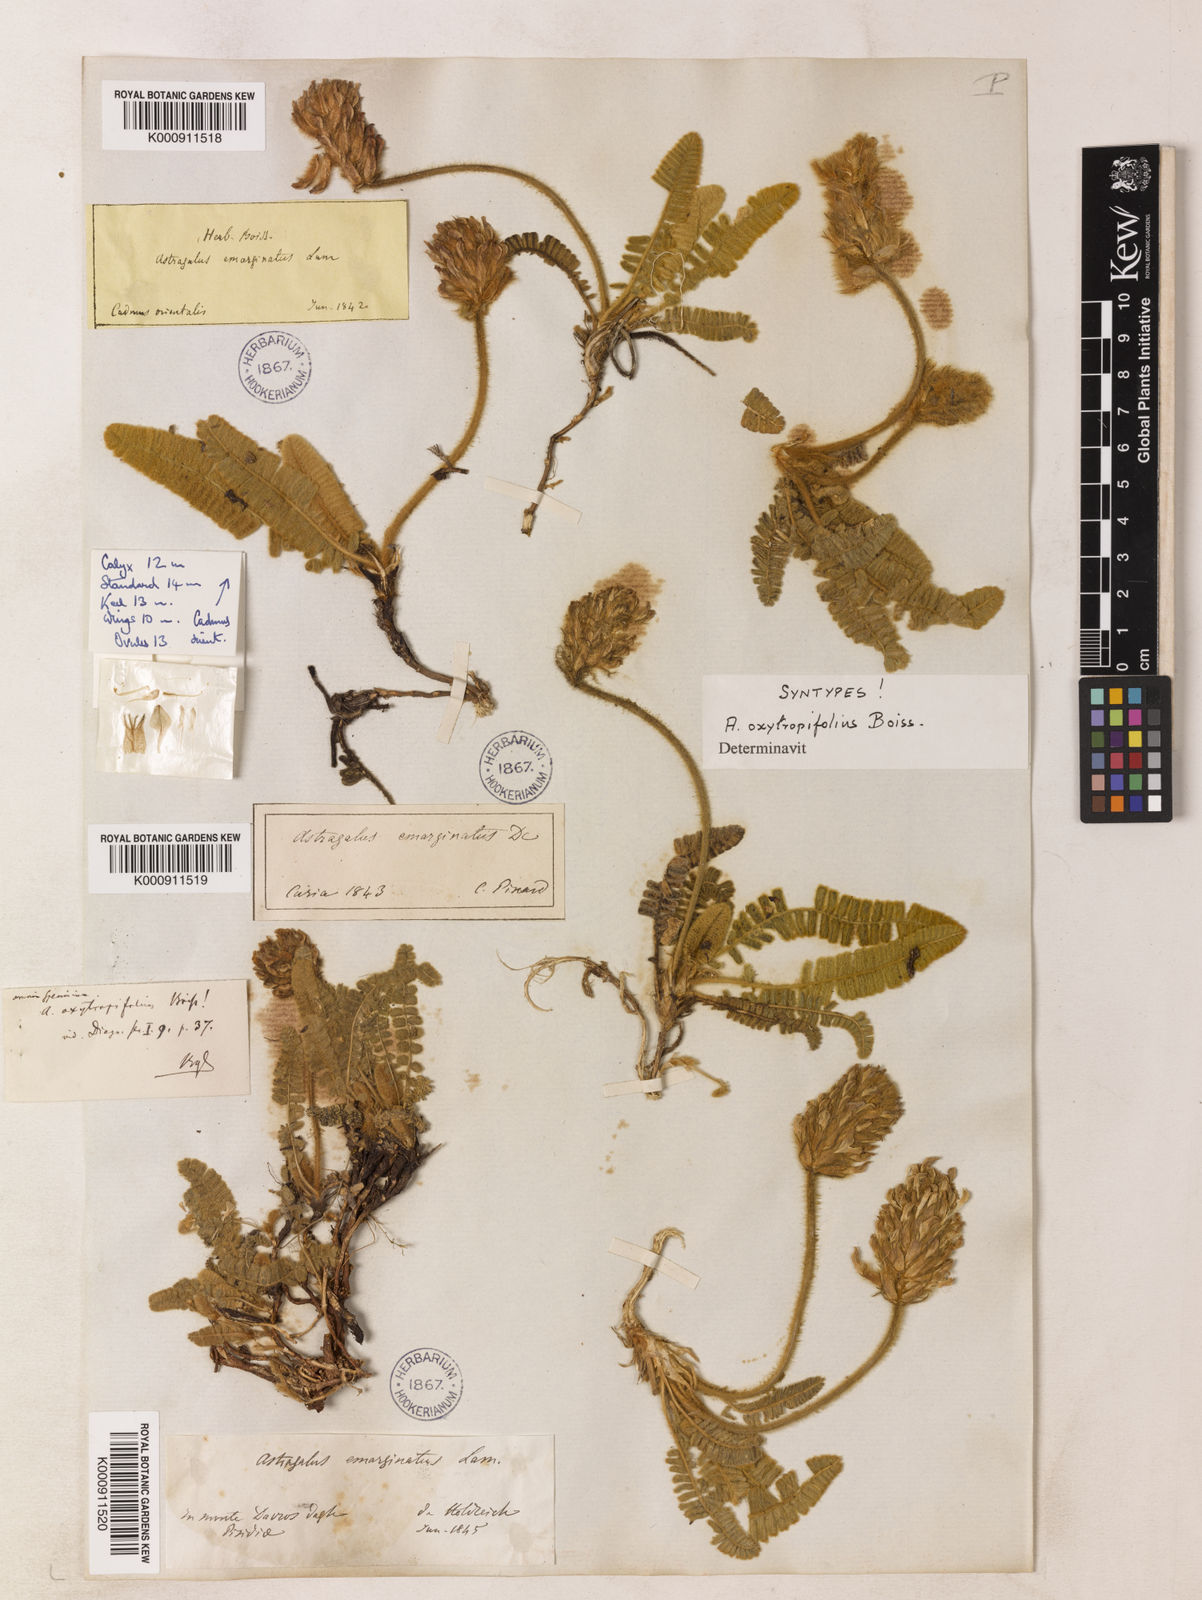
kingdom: Plantae
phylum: Tracheophyta
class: Magnoliopsida
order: Fabales
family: Fabaceae
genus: Astragalus
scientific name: Astragalus oxytropifolius
